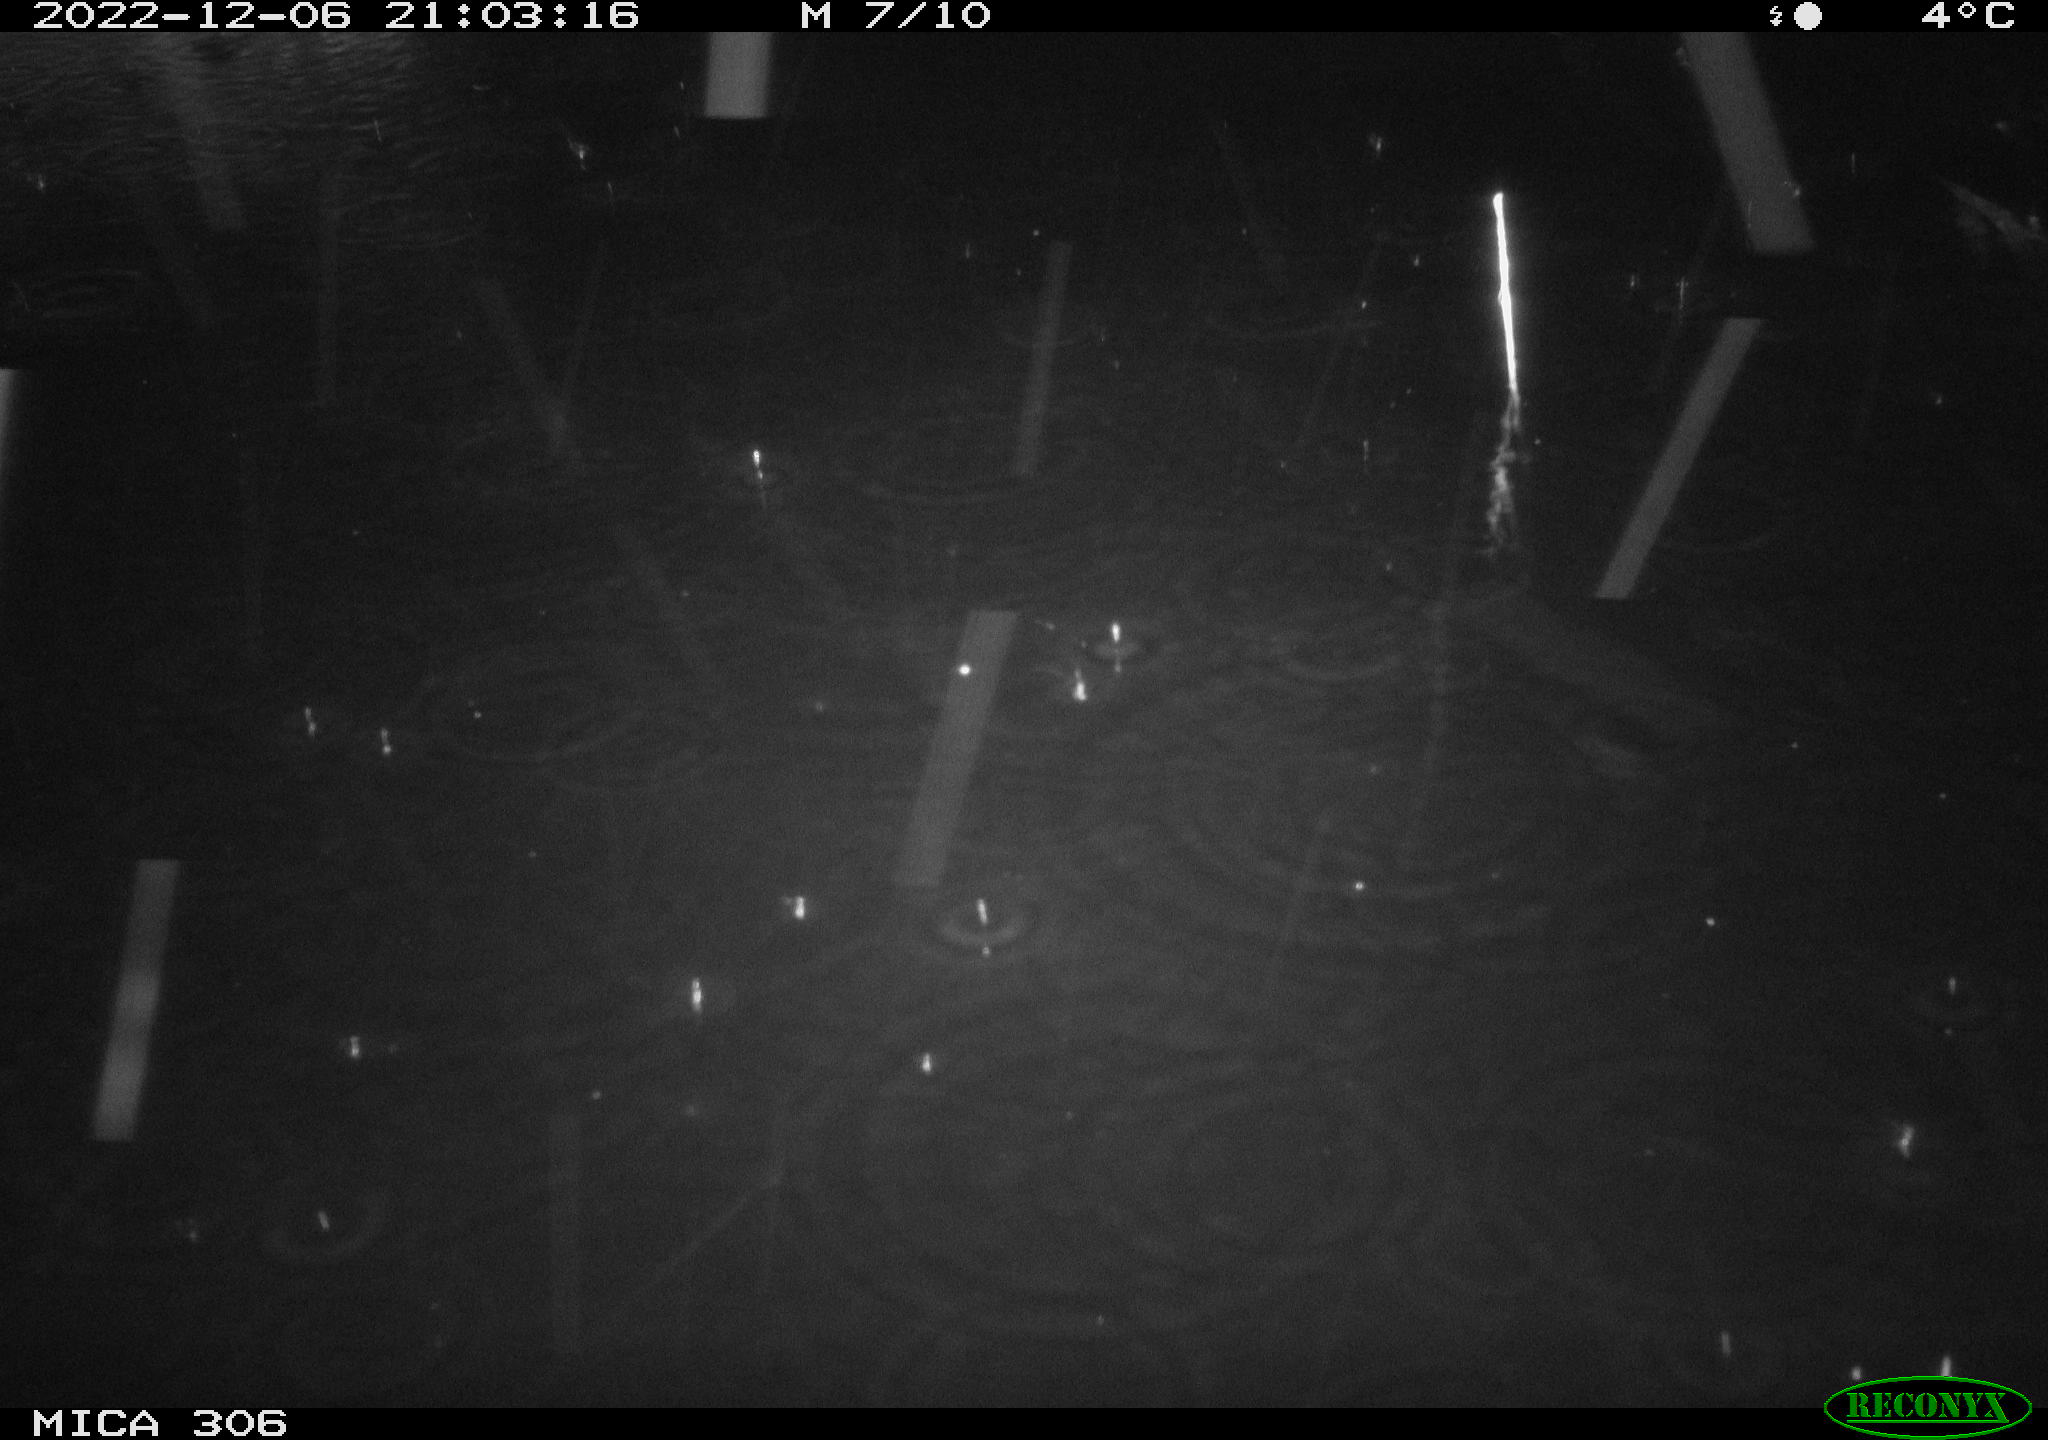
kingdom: Animalia
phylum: Chordata
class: Mammalia
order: Rodentia
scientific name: Rodentia
